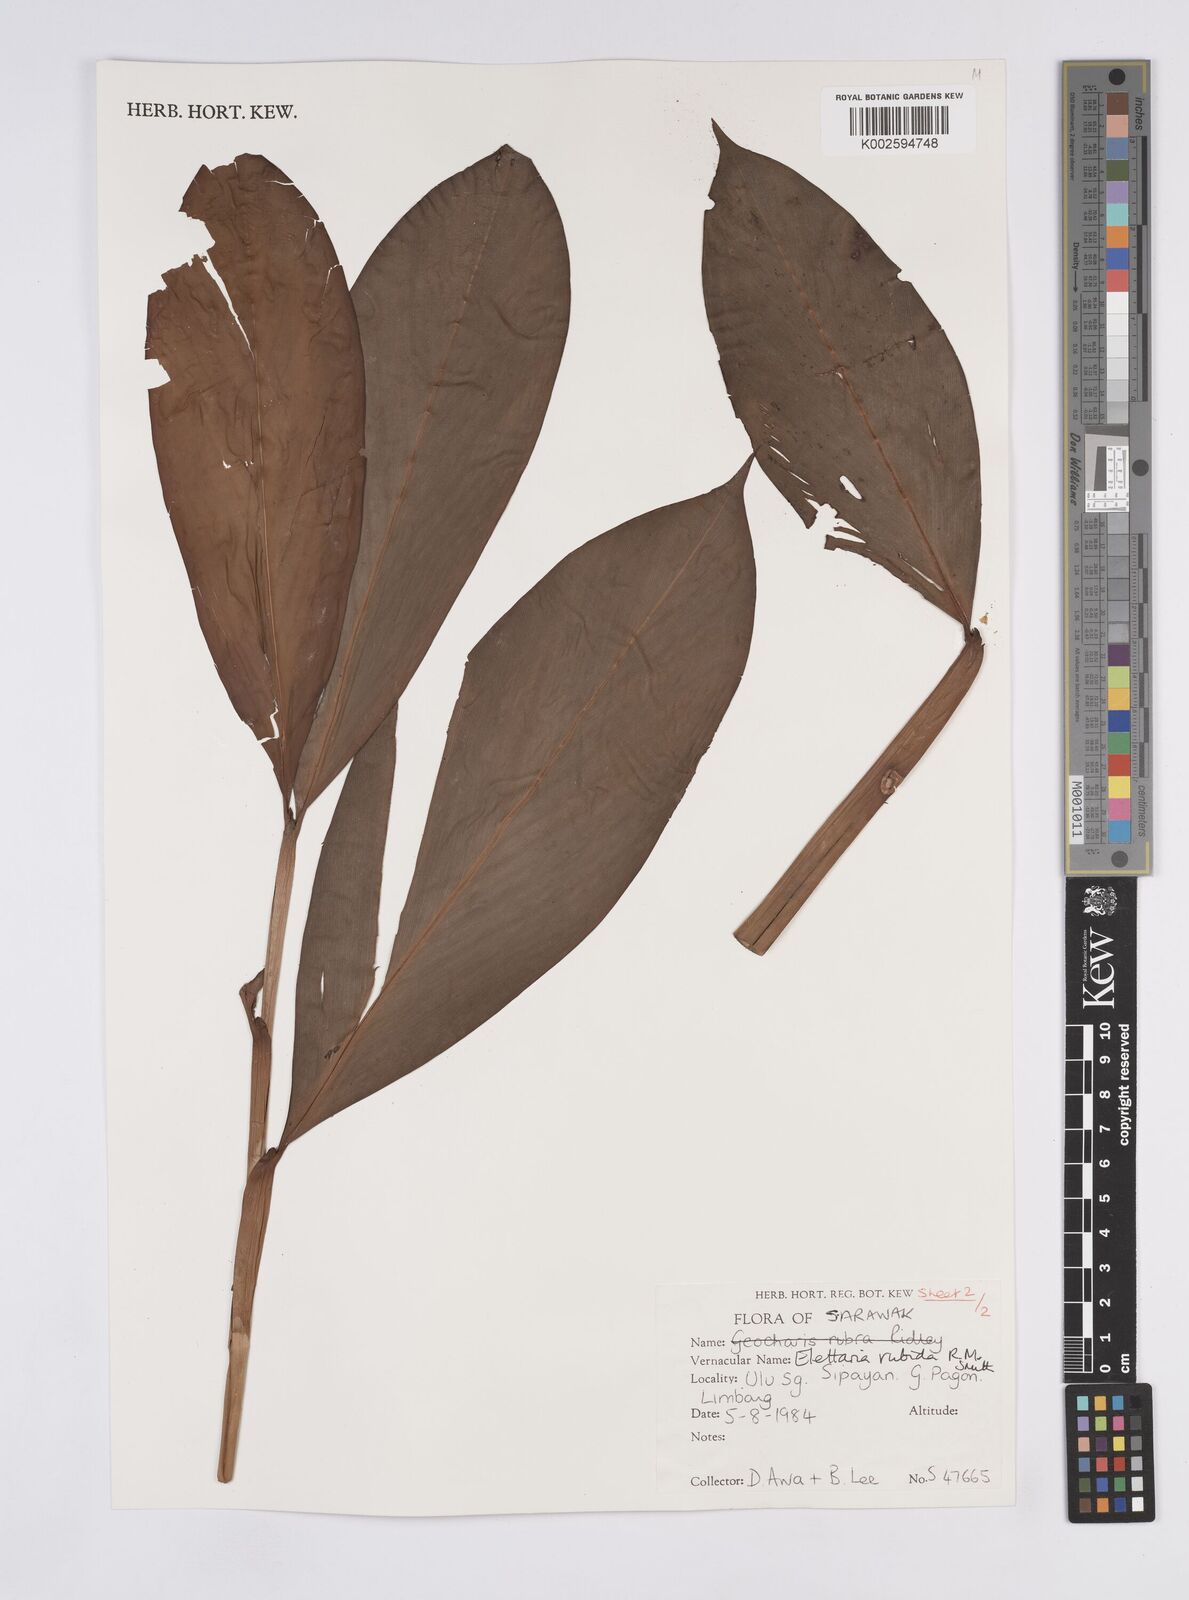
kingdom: Plantae
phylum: Tracheophyta
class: Liliopsida
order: Zingiberales
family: Zingiberaceae
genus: Sulettaria
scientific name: Sulettaria rubida
